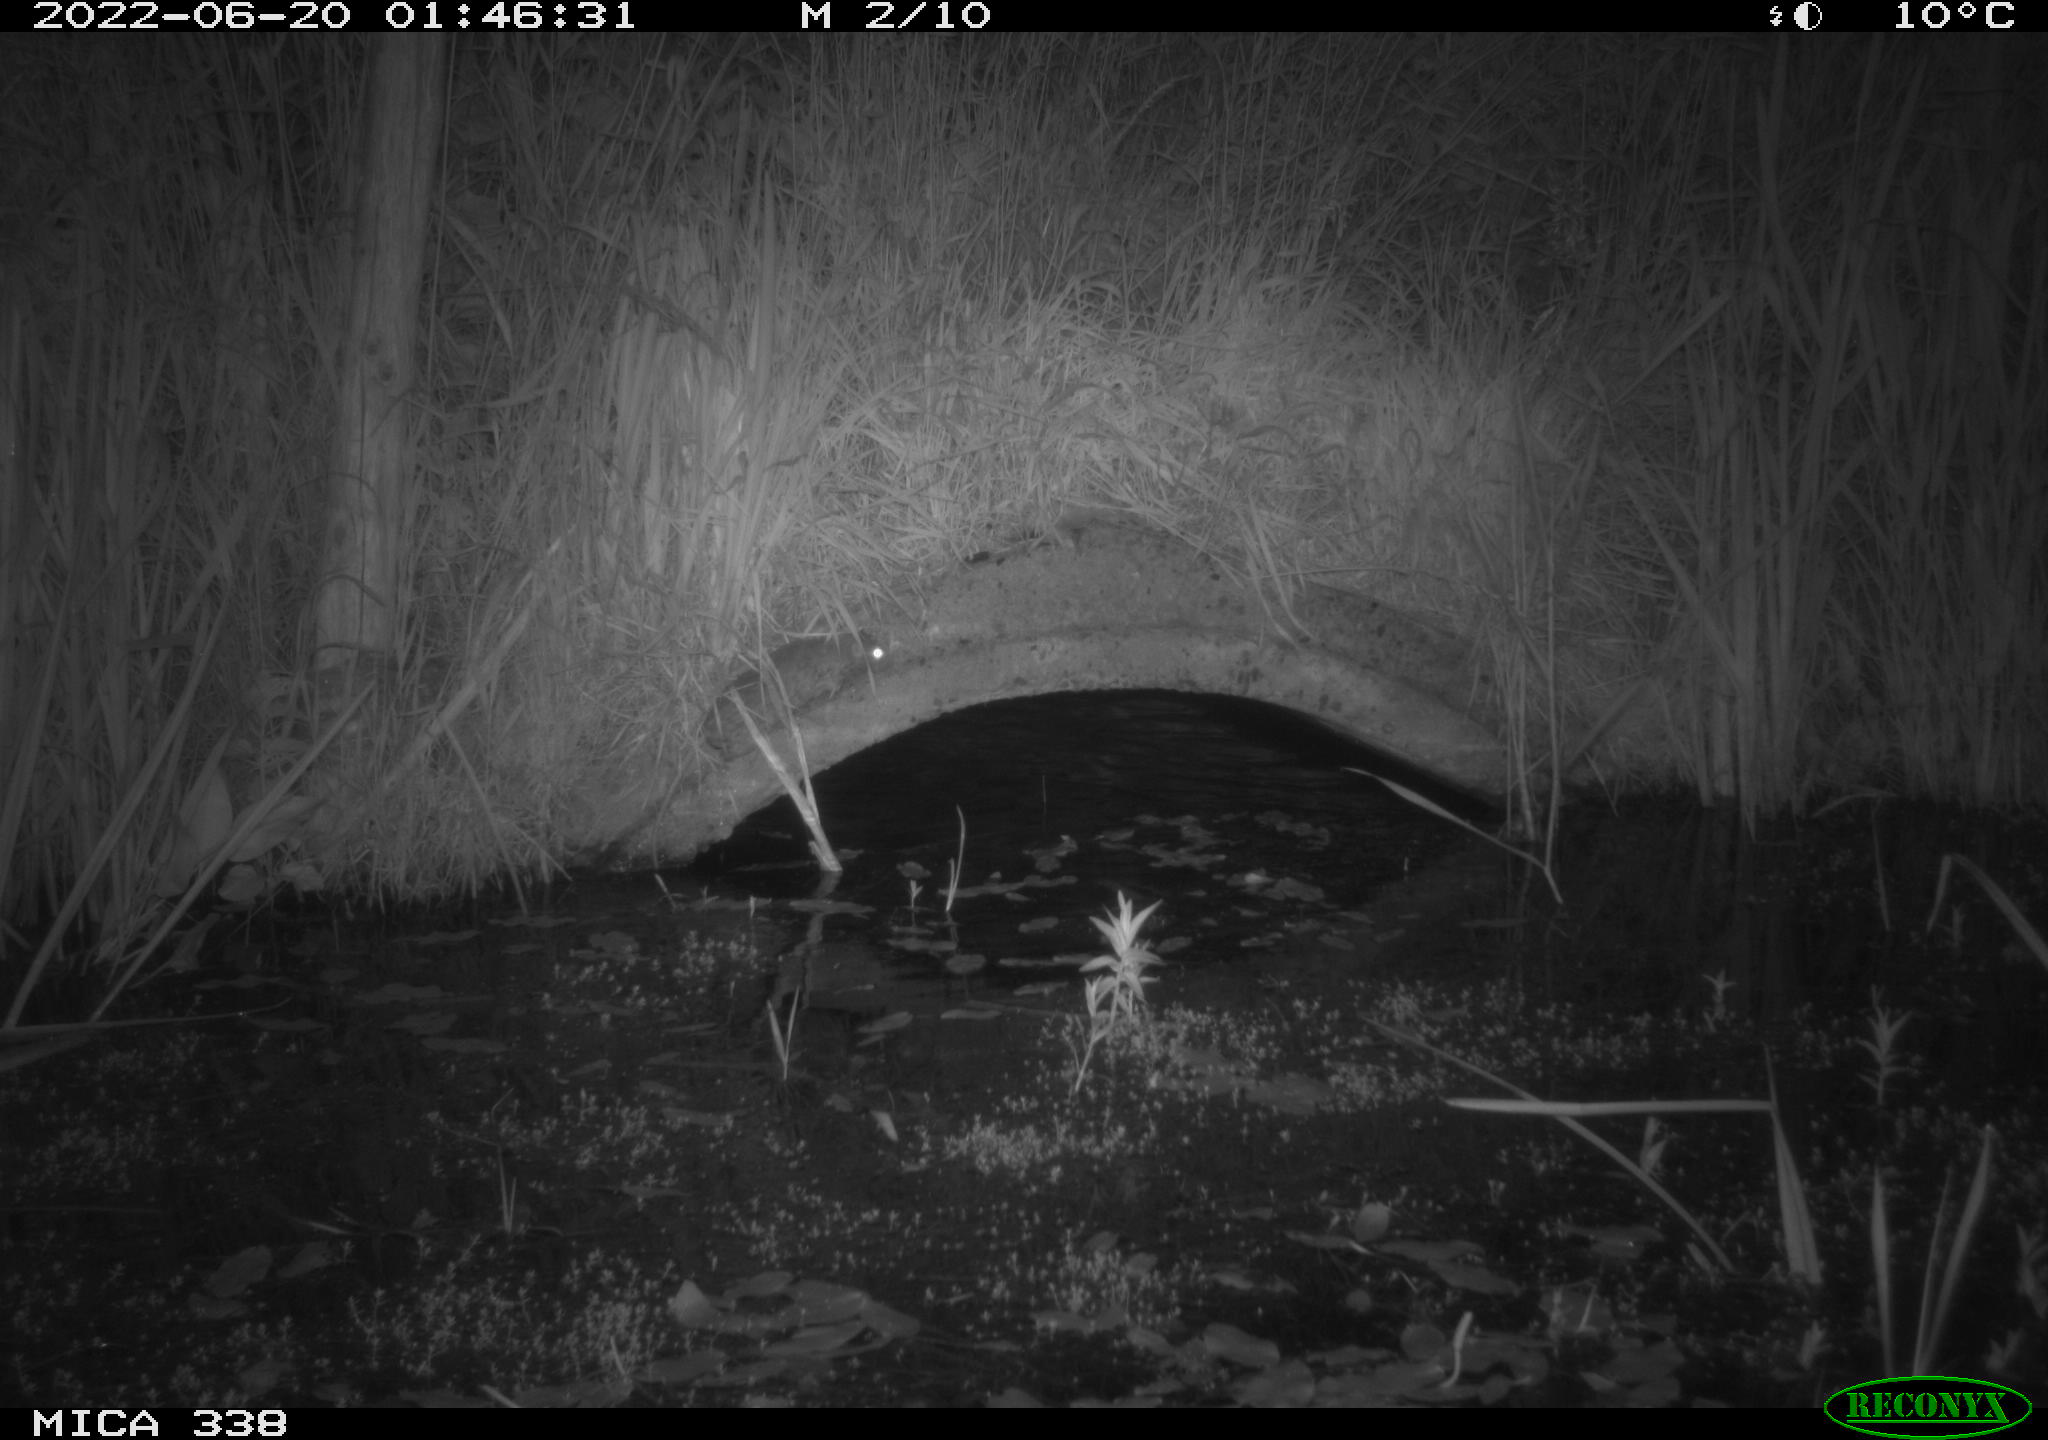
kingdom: Animalia
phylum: Chordata
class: Mammalia
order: Rodentia
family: Muridae
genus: Rattus
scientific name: Rattus norvegicus
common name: Brown rat
